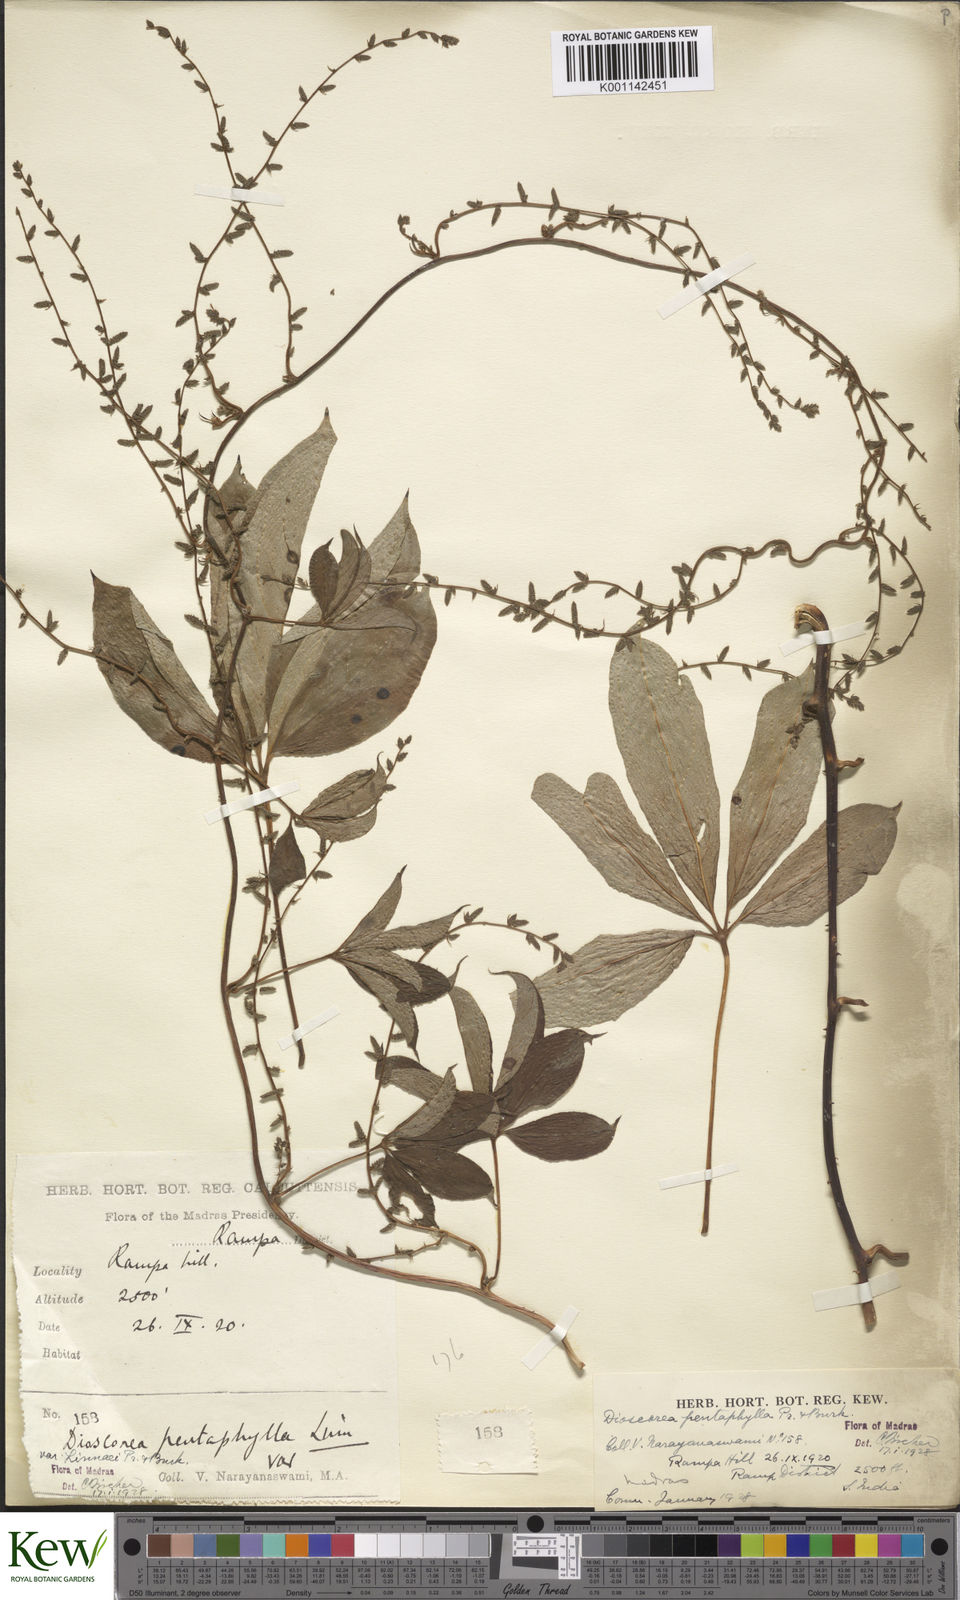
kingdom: Plantae
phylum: Tracheophyta
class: Liliopsida
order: Dioscoreales
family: Dioscoreaceae
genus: Dioscorea
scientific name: Dioscorea pentaphylla
